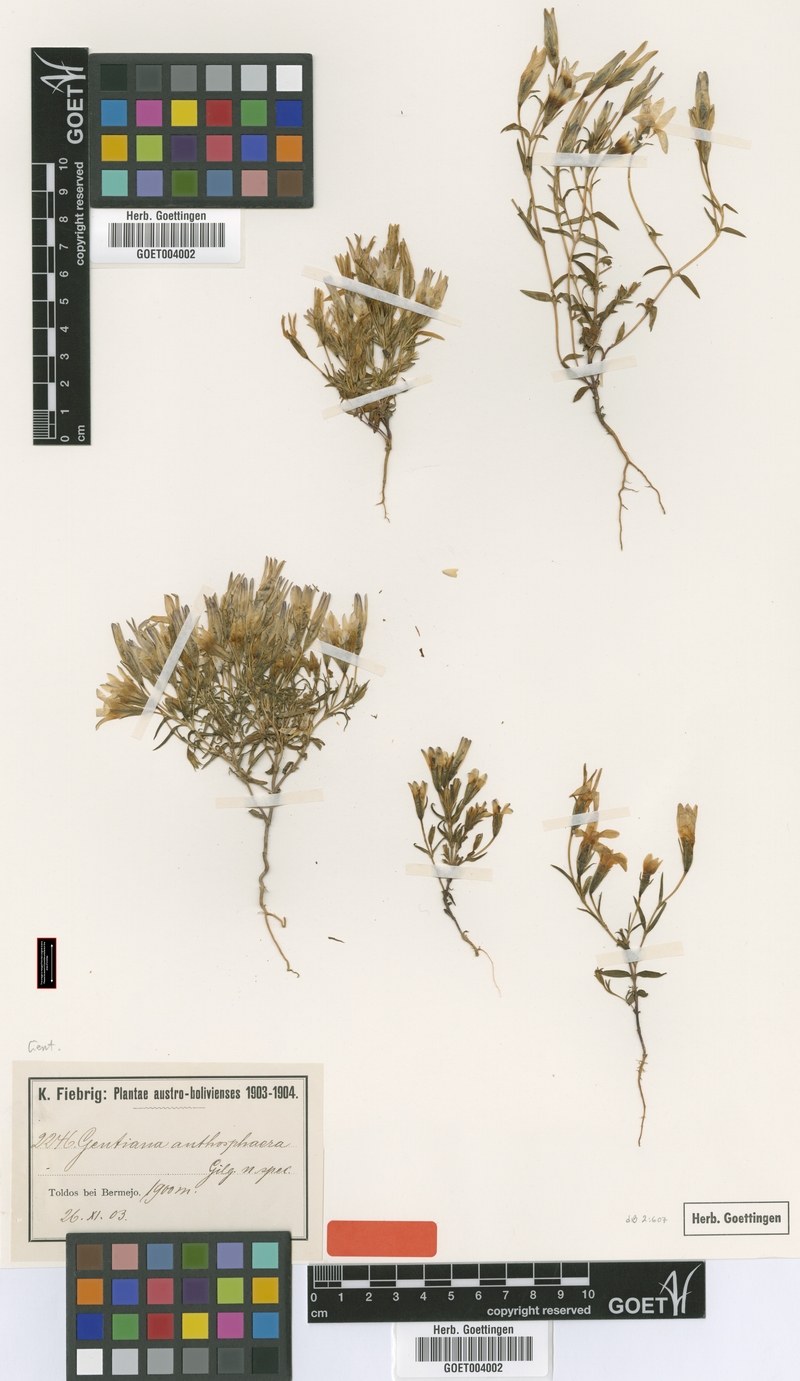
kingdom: Plantae
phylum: Tracheophyta
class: Magnoliopsida
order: Gentianales
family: Gentianaceae
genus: Gentianella
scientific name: Gentianella silenoides
